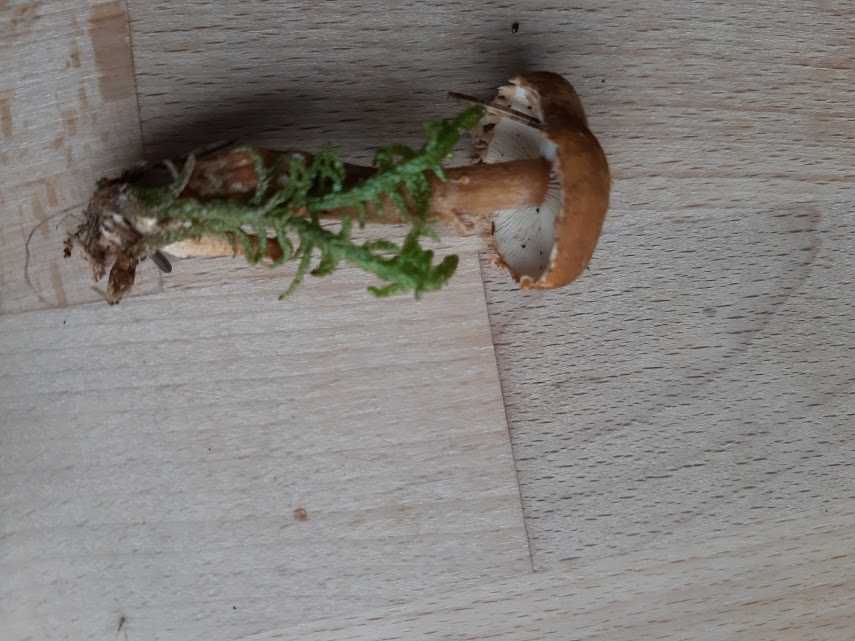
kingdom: Fungi
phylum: Basidiomycota
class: Agaricomycetes
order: Agaricales
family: Tricholomataceae
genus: Cystoderma
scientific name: Cystoderma
